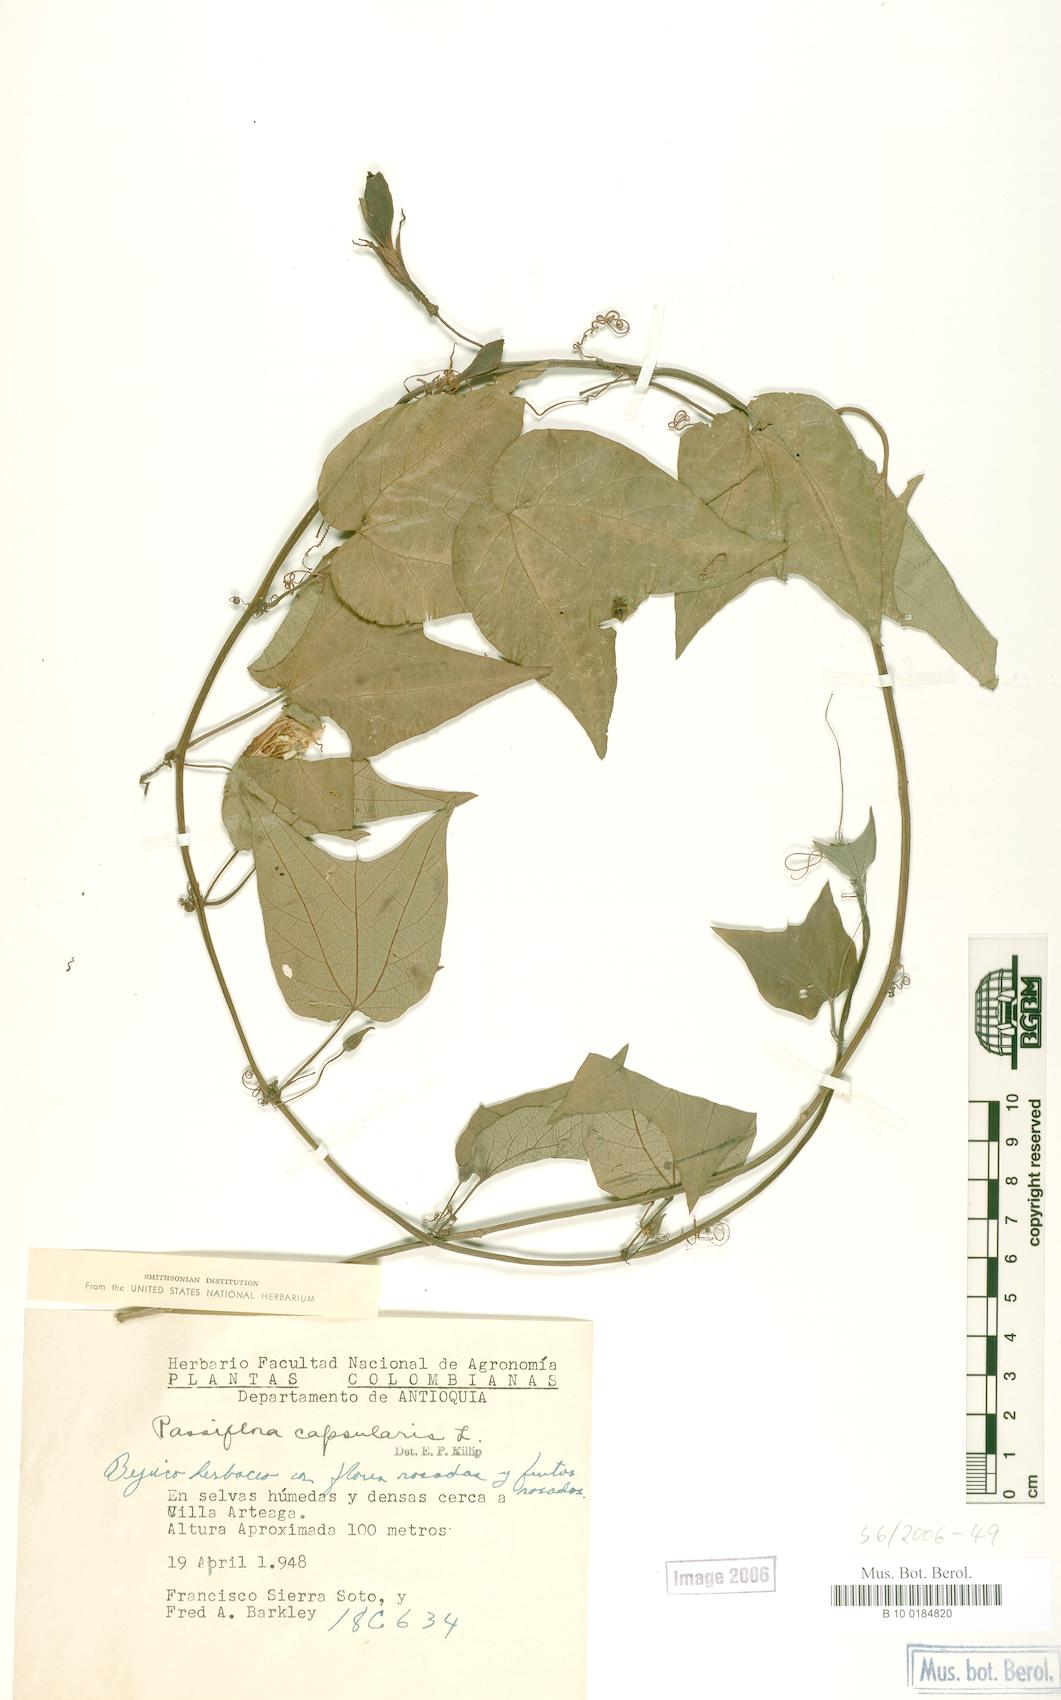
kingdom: Plantae
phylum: Tracheophyta
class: Magnoliopsida
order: Malpighiales
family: Passifloraceae
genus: Passiflora
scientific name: Passiflora capsularis
